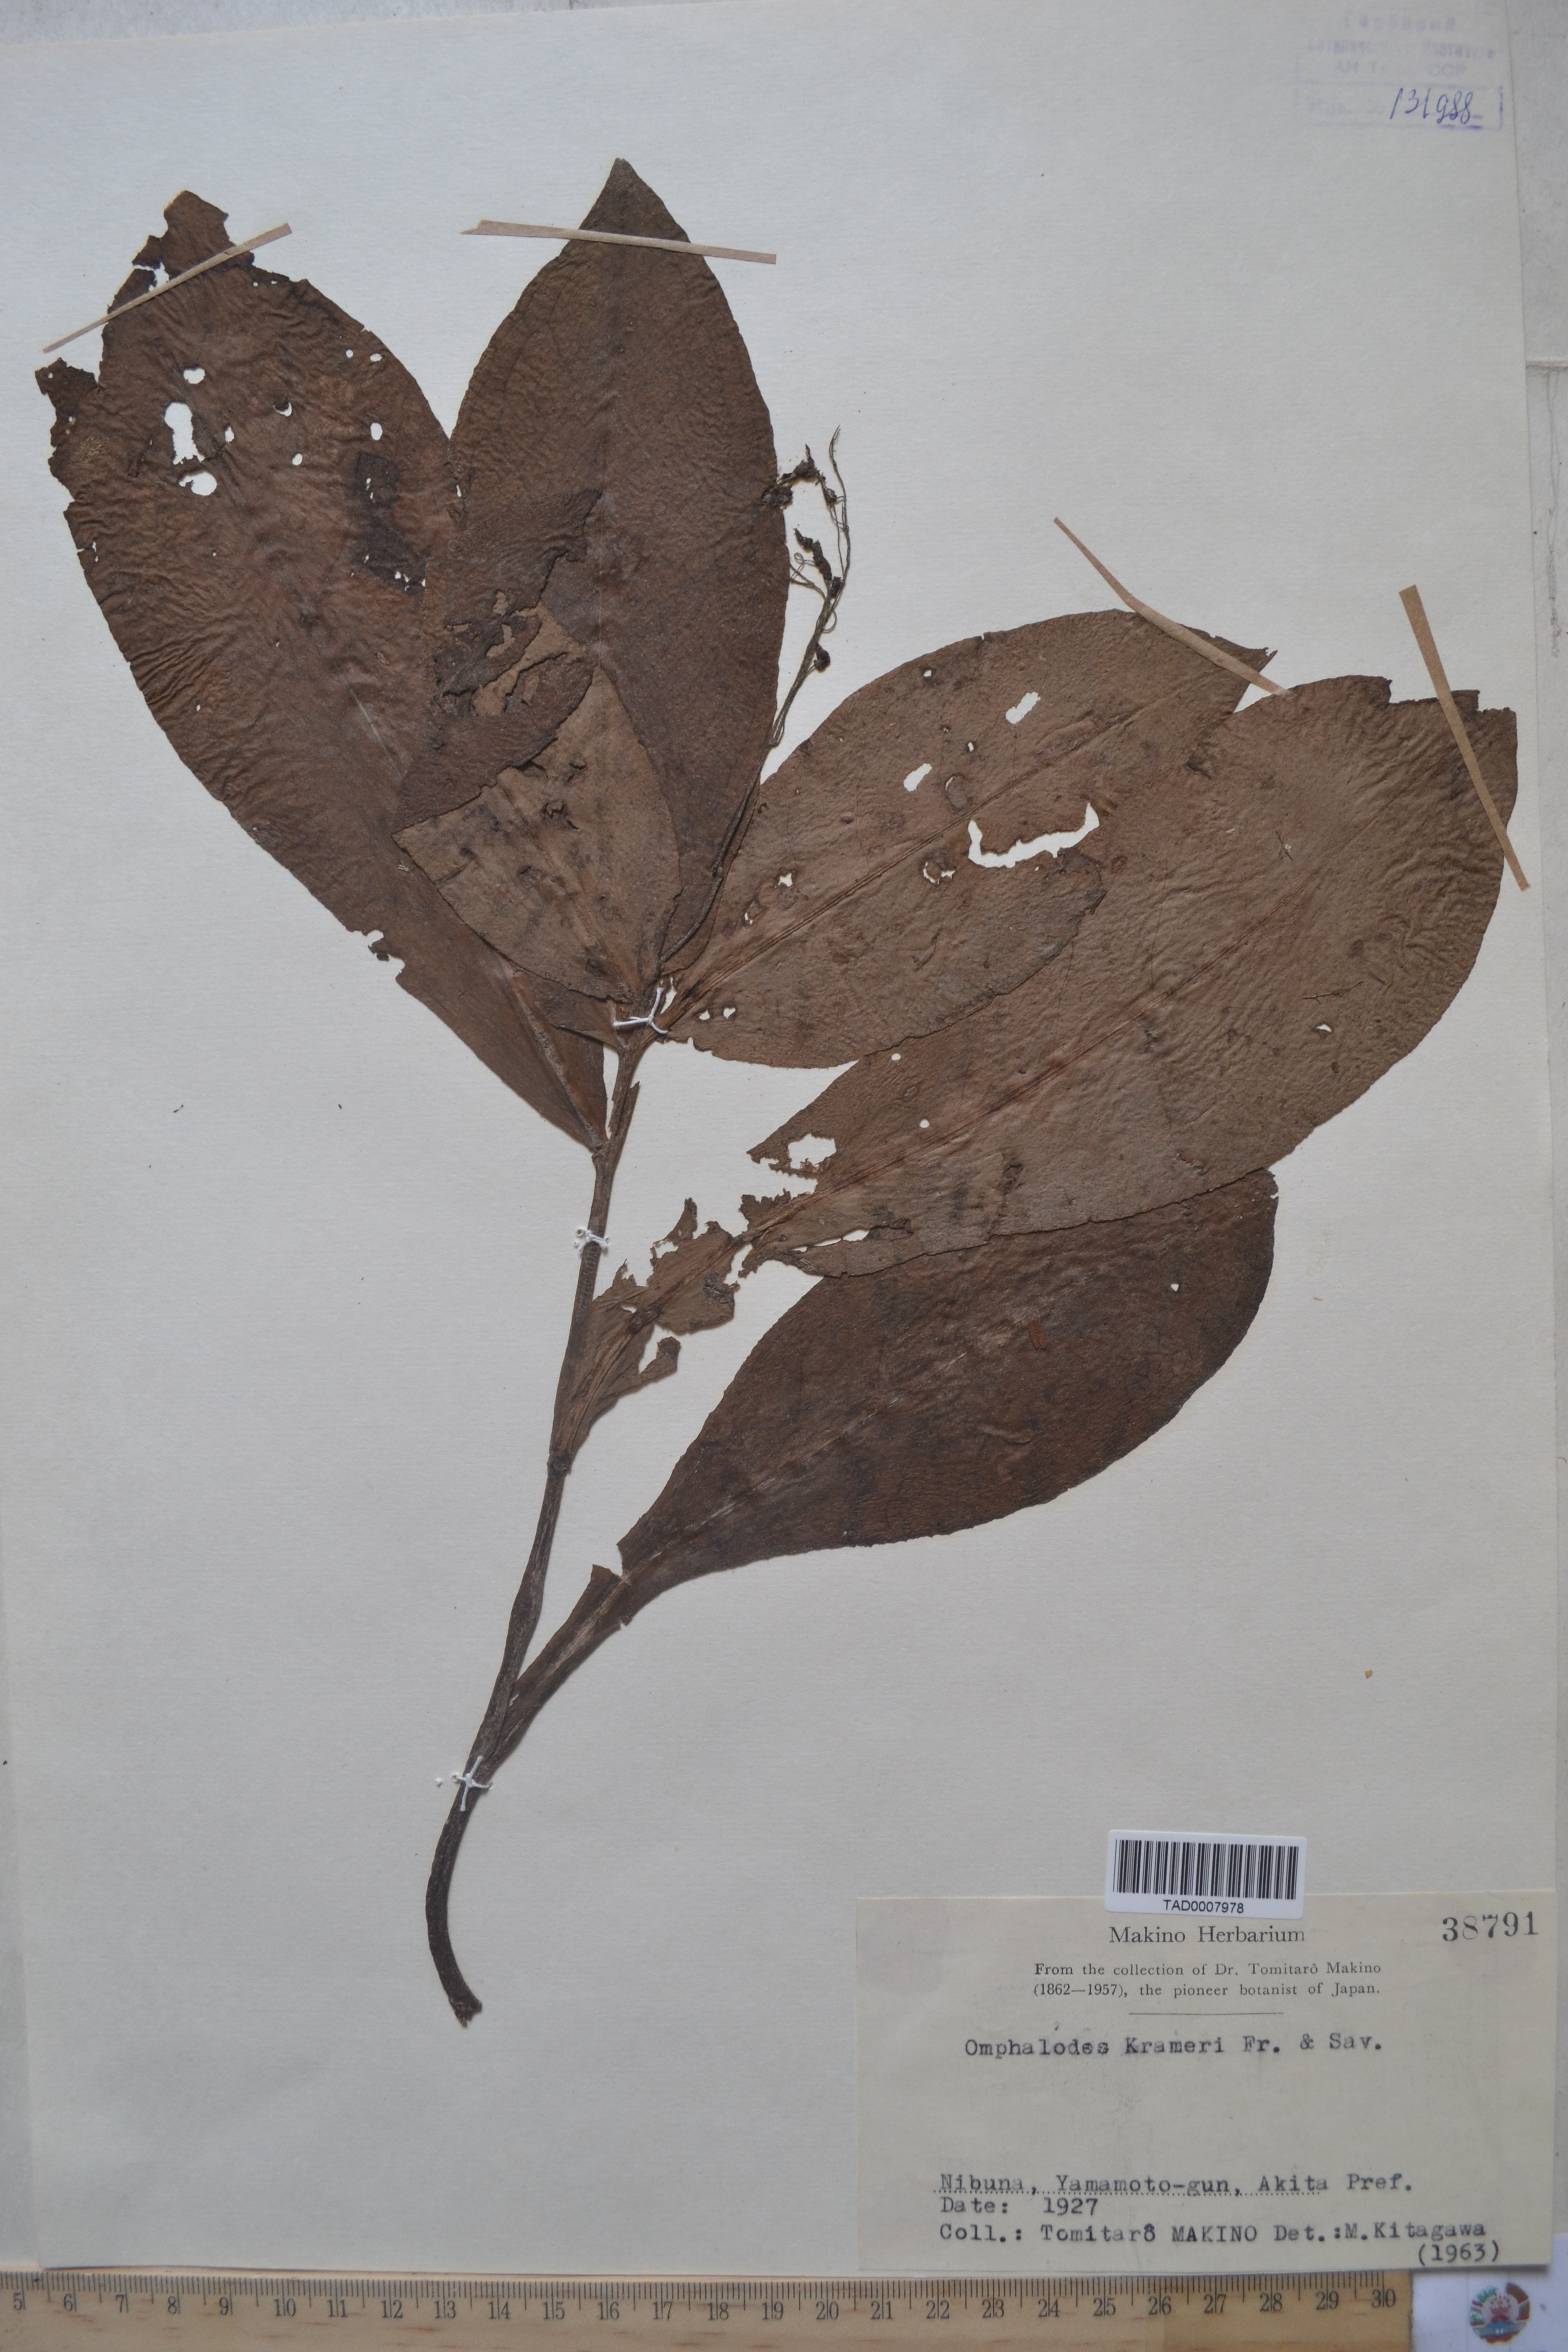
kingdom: Plantae
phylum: Tracheophyta
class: Magnoliopsida
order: Boraginales
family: Boraginaceae
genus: Nihon
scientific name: Nihon krameri
